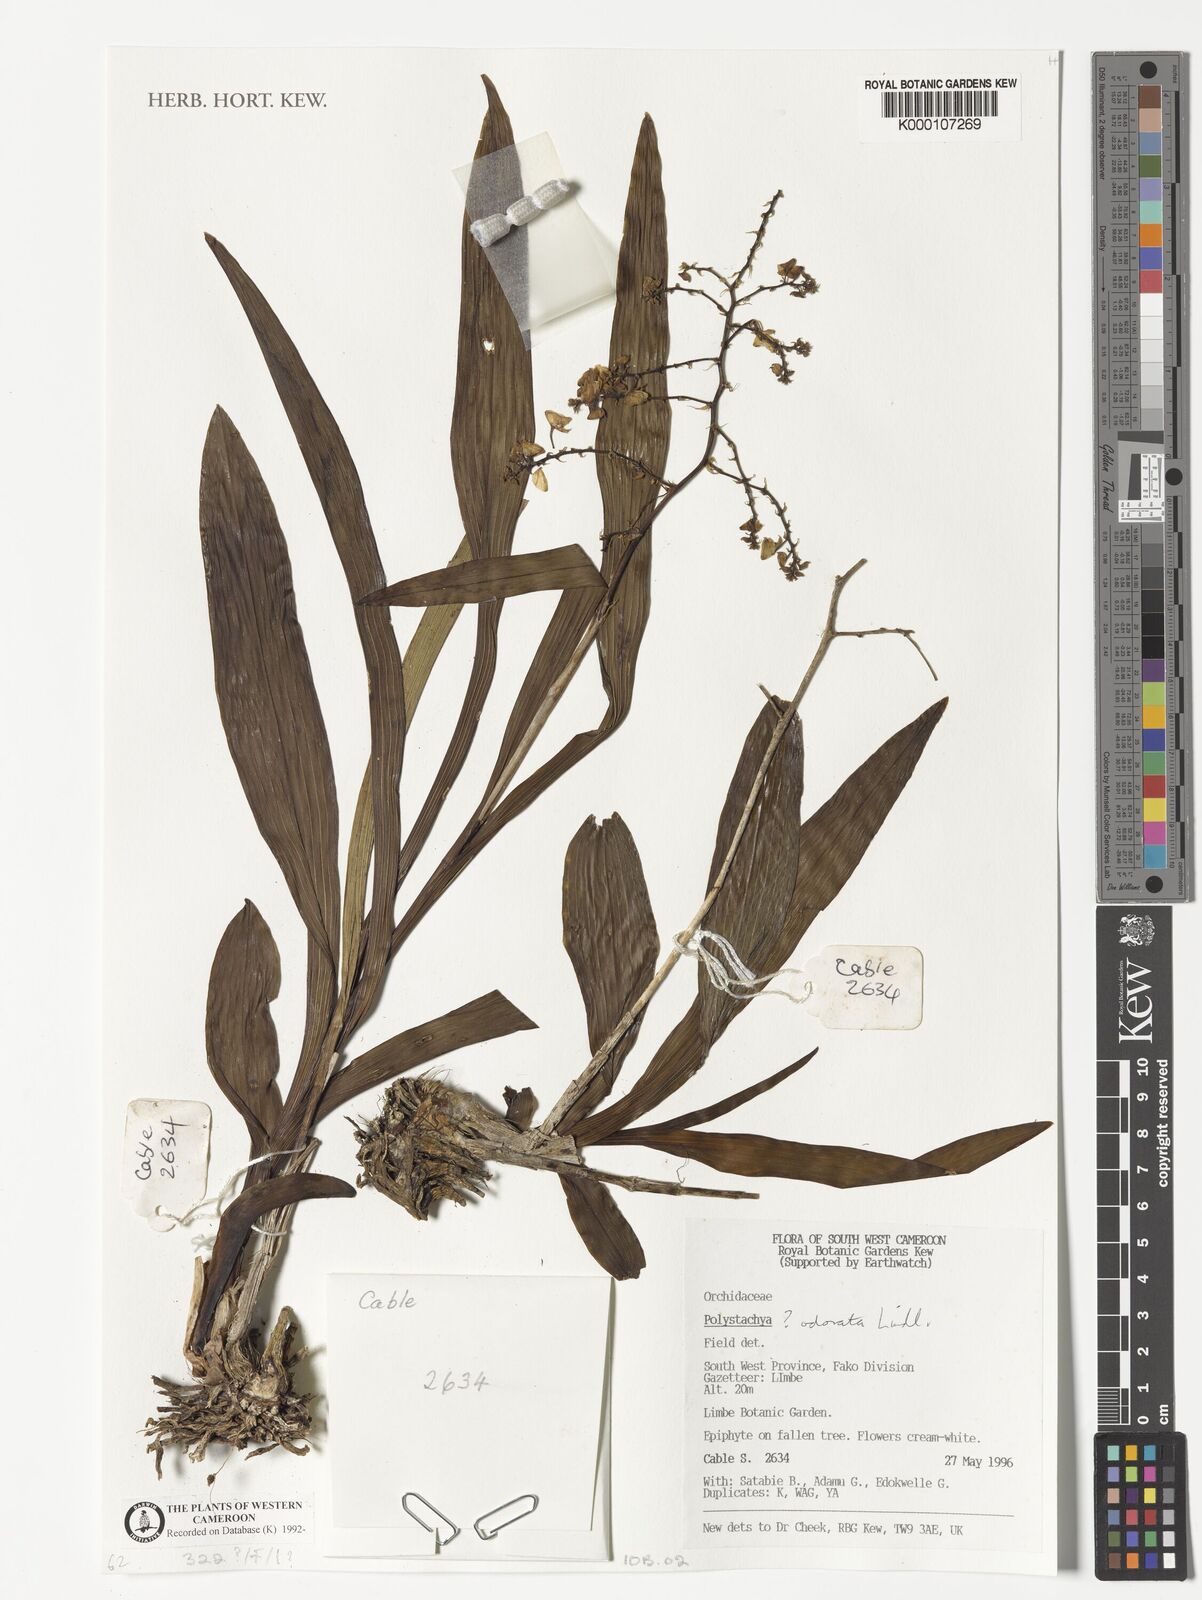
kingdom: Plantae
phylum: Tracheophyta
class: Liliopsida
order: Asparagales
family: Orchidaceae
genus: Polystachya
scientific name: Polystachya ramulosa
